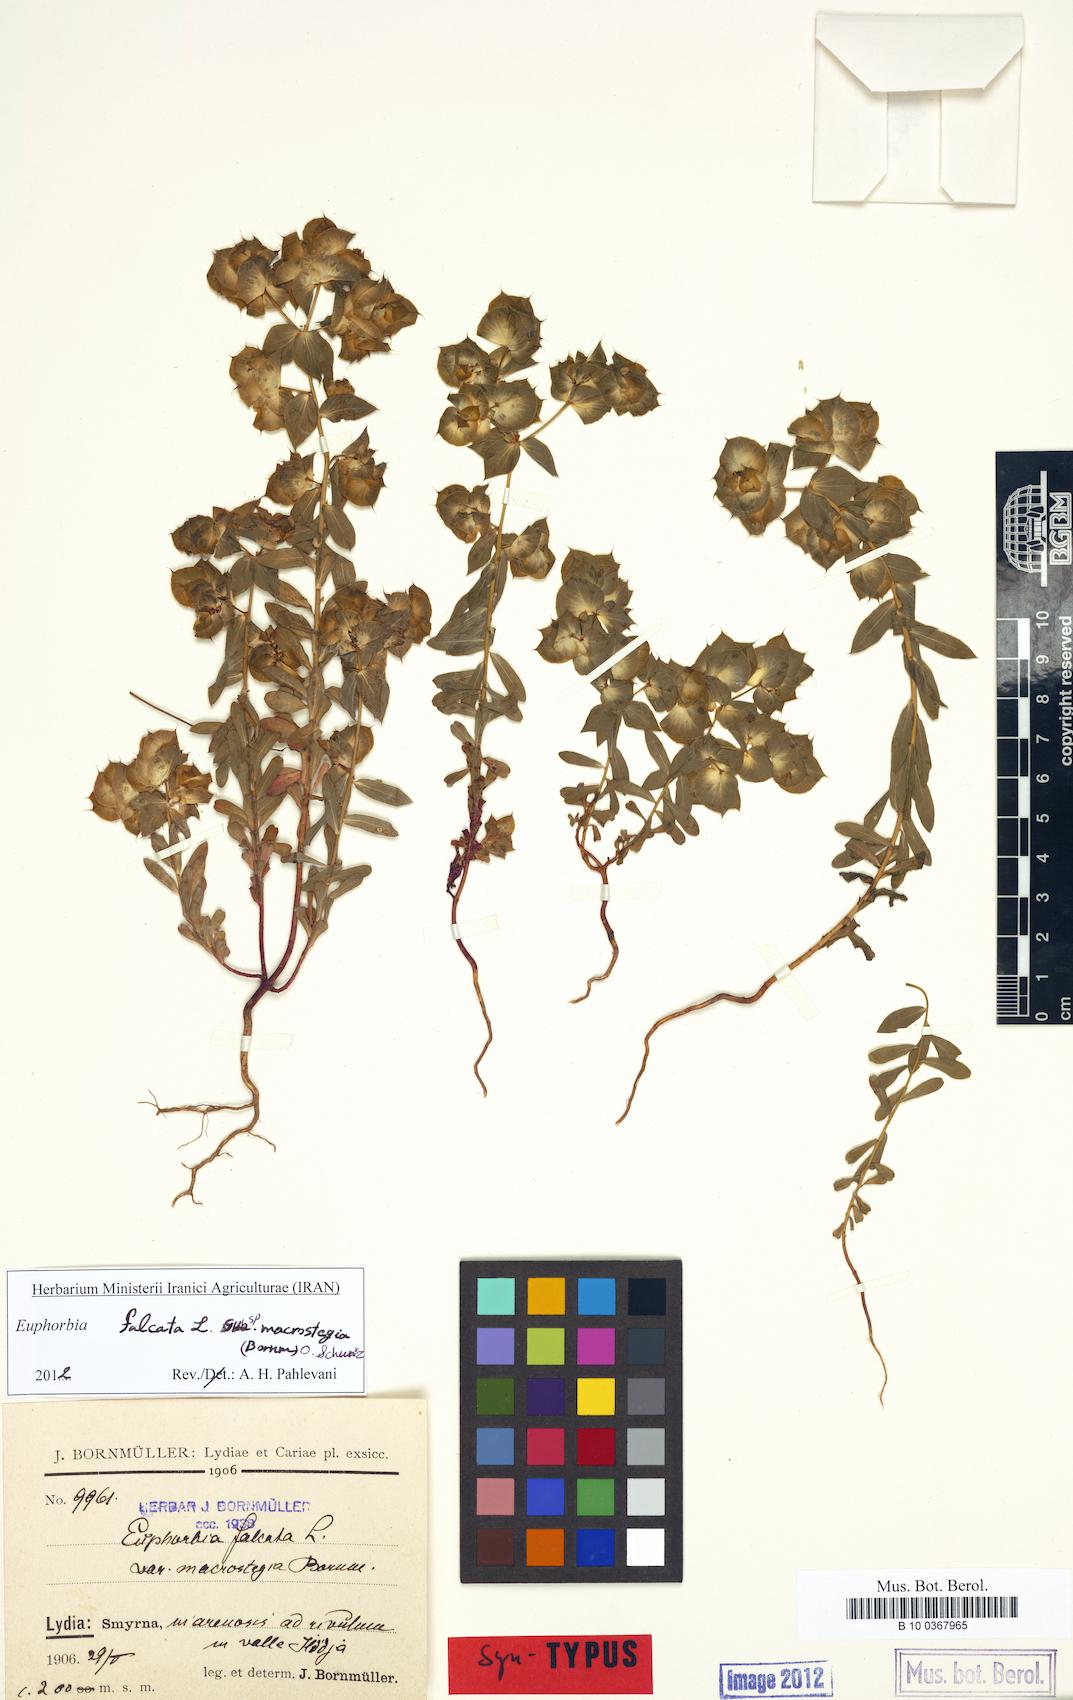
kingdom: Plantae
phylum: Tracheophyta
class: Magnoliopsida
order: Malpighiales
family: Euphorbiaceae
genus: Euphorbia
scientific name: Euphorbia falcata
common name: Sickle spurge
